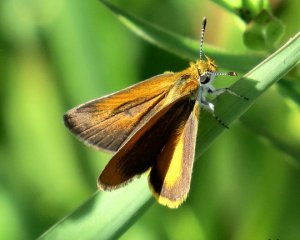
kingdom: Animalia
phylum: Arthropoda
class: Insecta
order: Lepidoptera
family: Hesperiidae
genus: Ancyloxypha
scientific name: Ancyloxypha numitor
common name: Least Skipper
